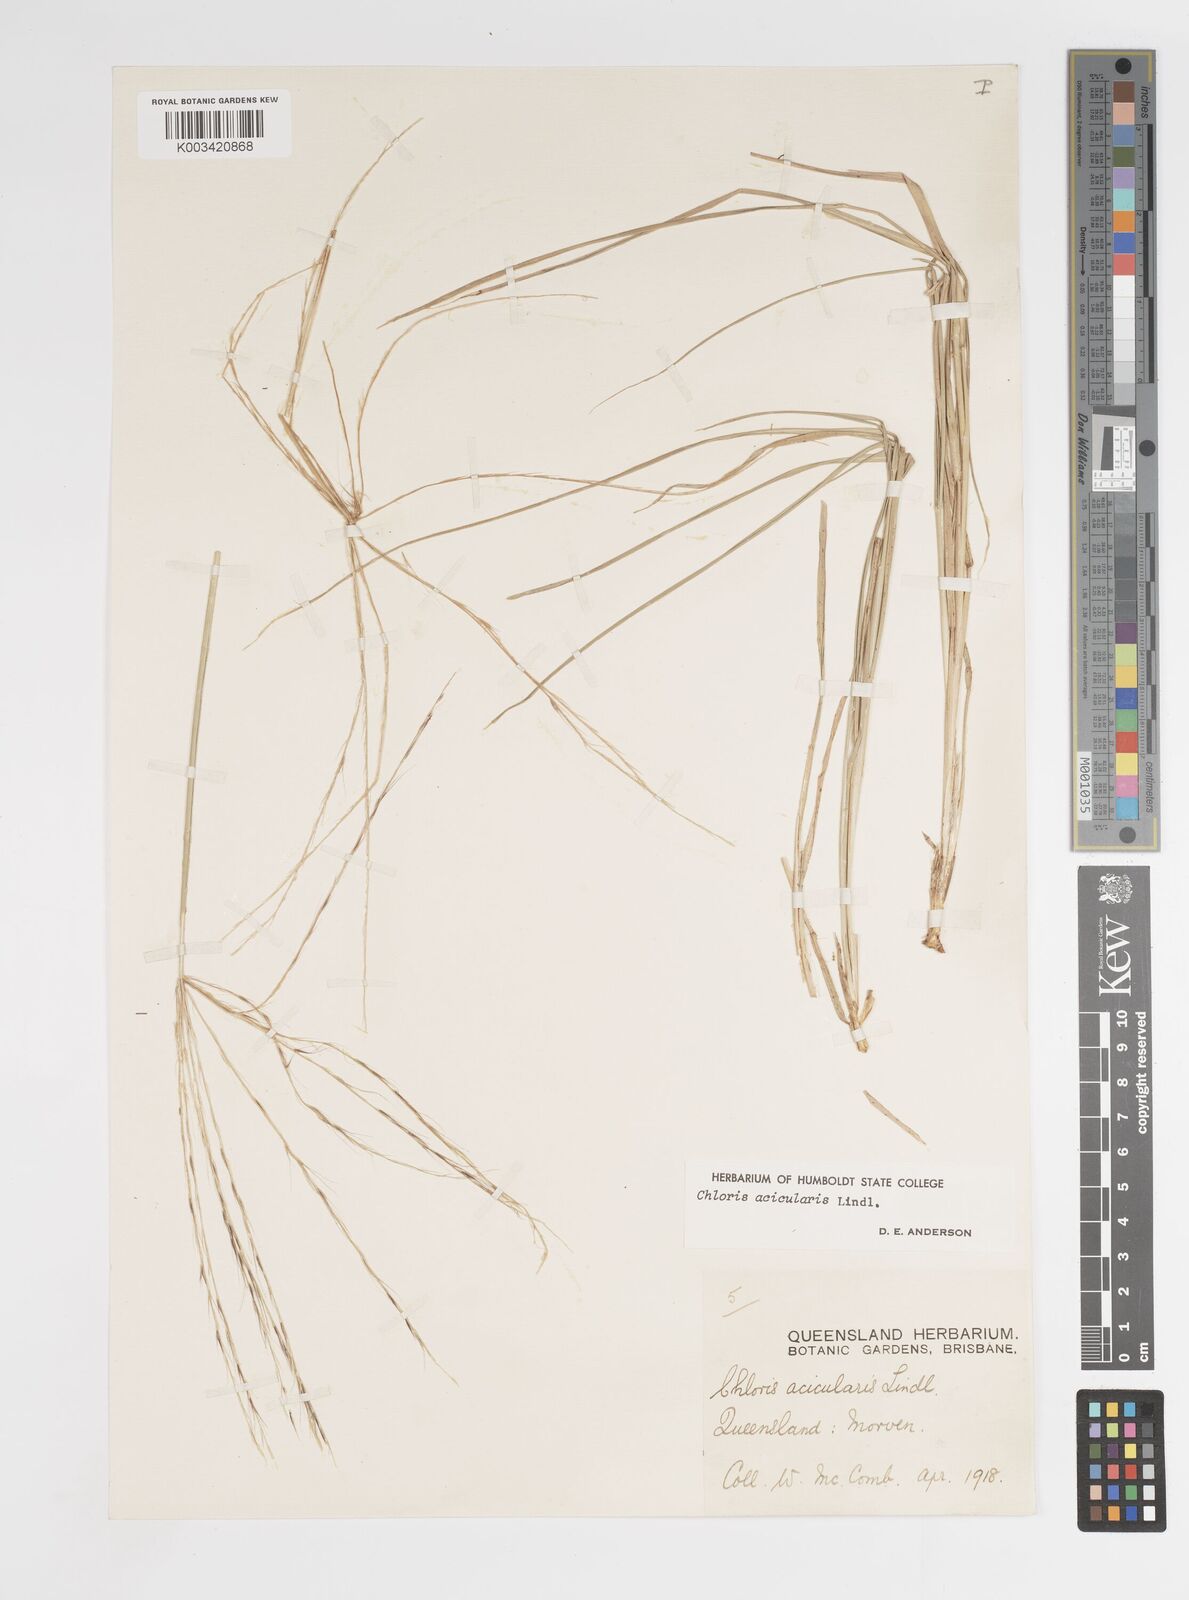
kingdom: Plantae
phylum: Tracheophyta
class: Liliopsida
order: Poales
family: Poaceae
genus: Enteropogon
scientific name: Enteropogon acicularis
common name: Curly windmill grass
